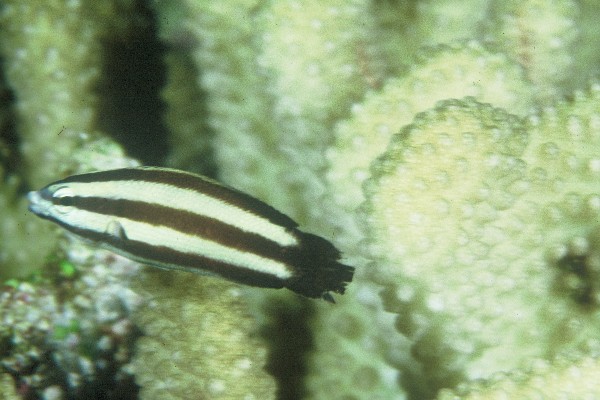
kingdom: Animalia
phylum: Chordata
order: Perciformes
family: Labridae
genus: Labropsis
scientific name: Labropsis australis
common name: Southern tubelip
